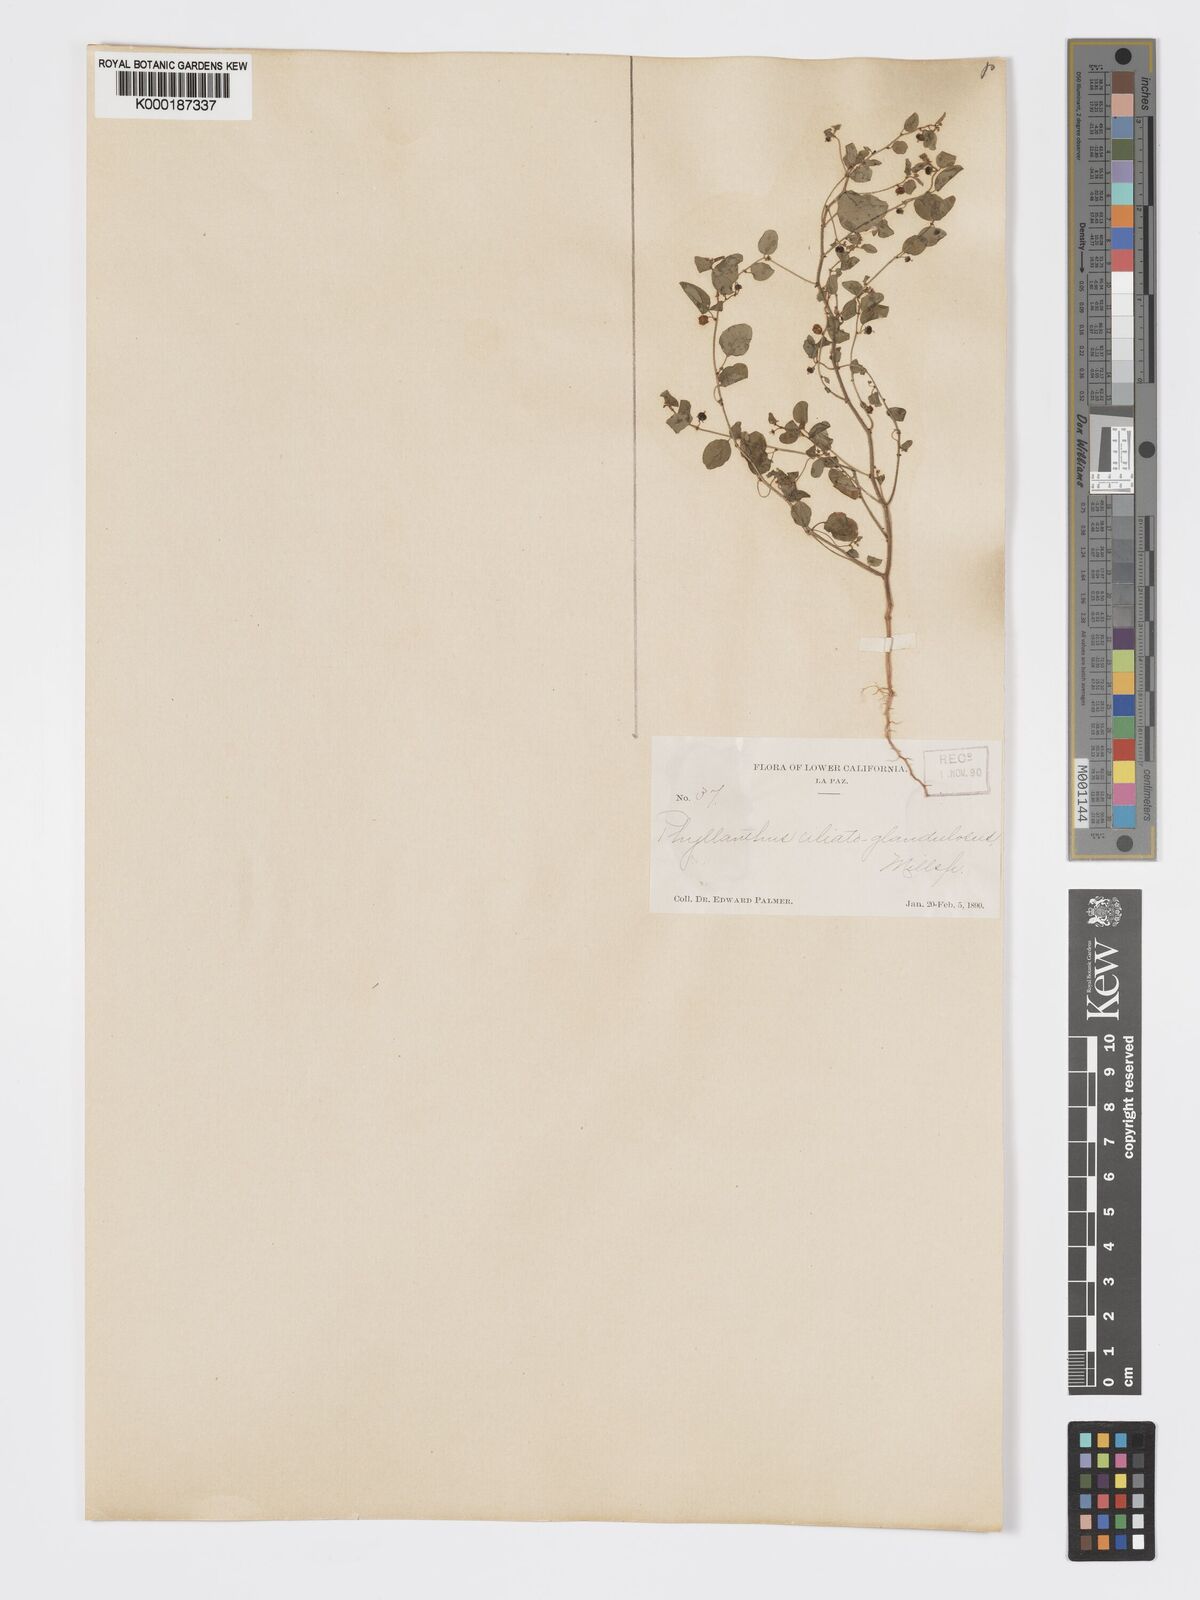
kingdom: Plantae
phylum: Tracheophyta
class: Magnoliopsida
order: Malpighiales
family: Phyllanthaceae
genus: Andrachne
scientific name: Andrachne microphylla
